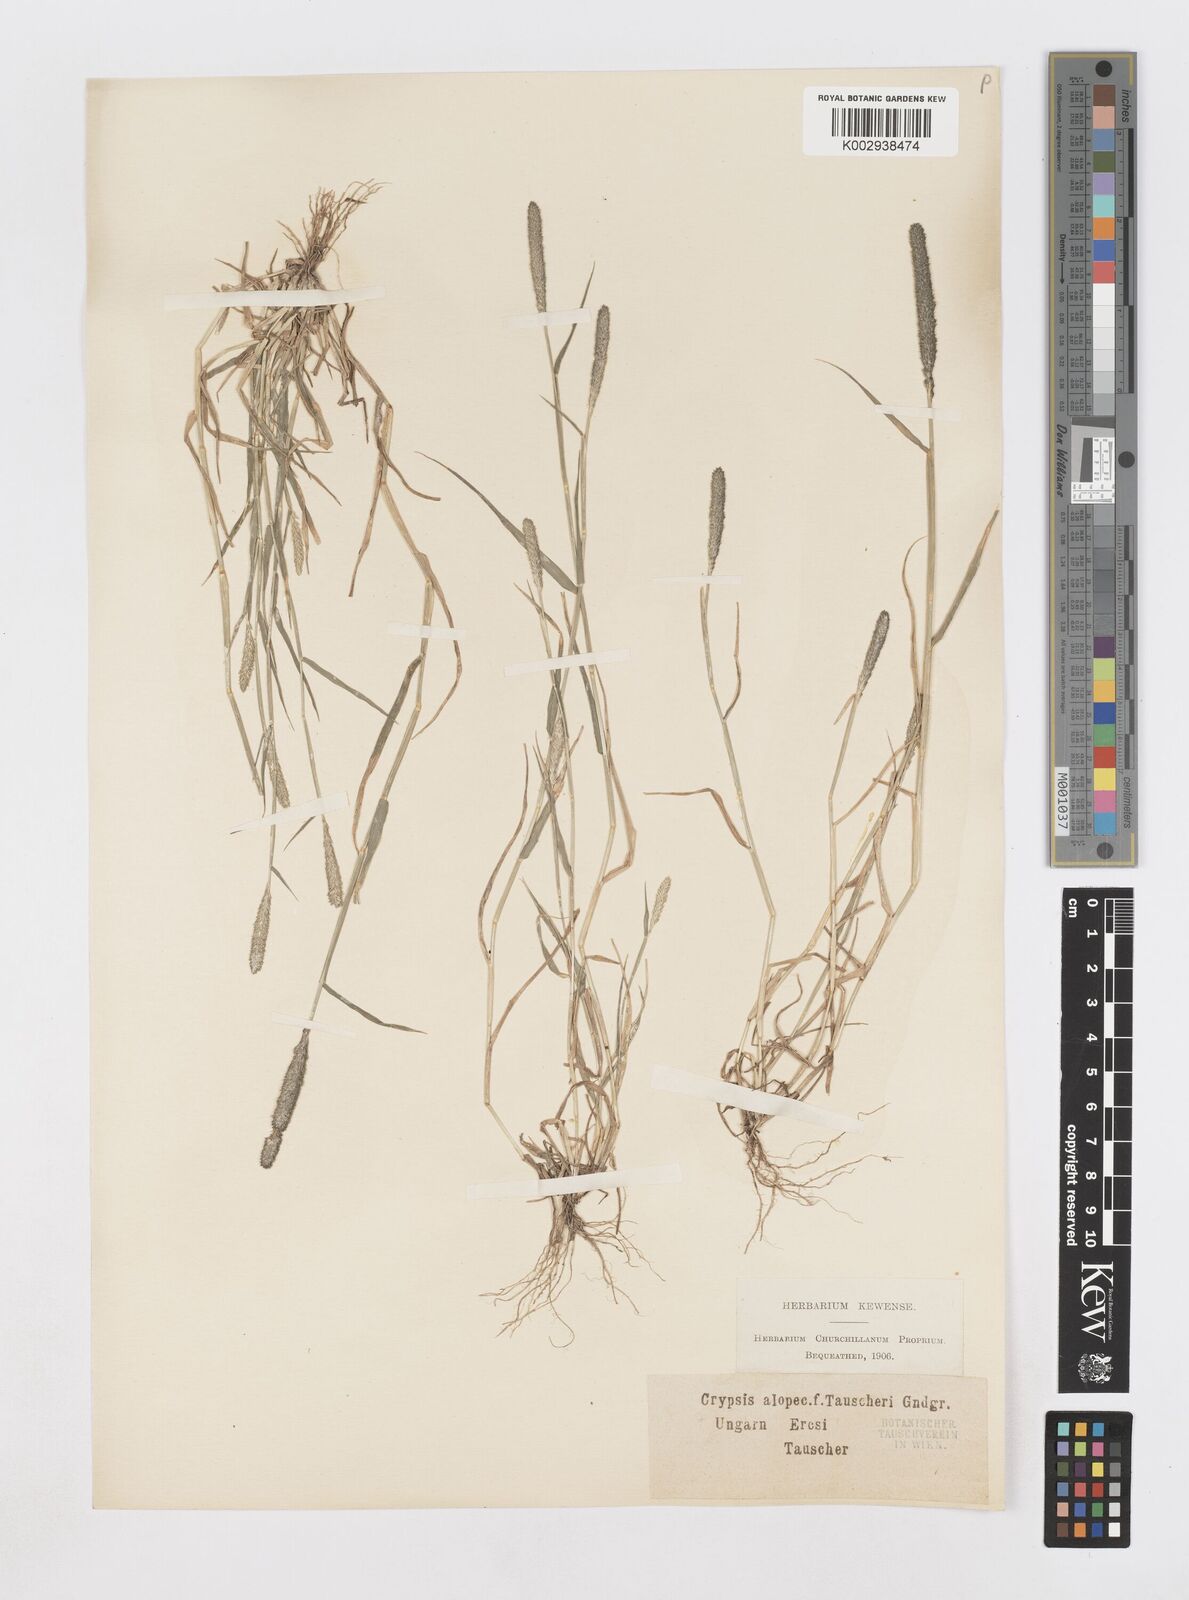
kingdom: Plantae
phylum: Tracheophyta
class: Liliopsida
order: Poales
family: Poaceae
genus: Sporobolus
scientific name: Sporobolus alopecuroides
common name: Foxtail pricklegrass
